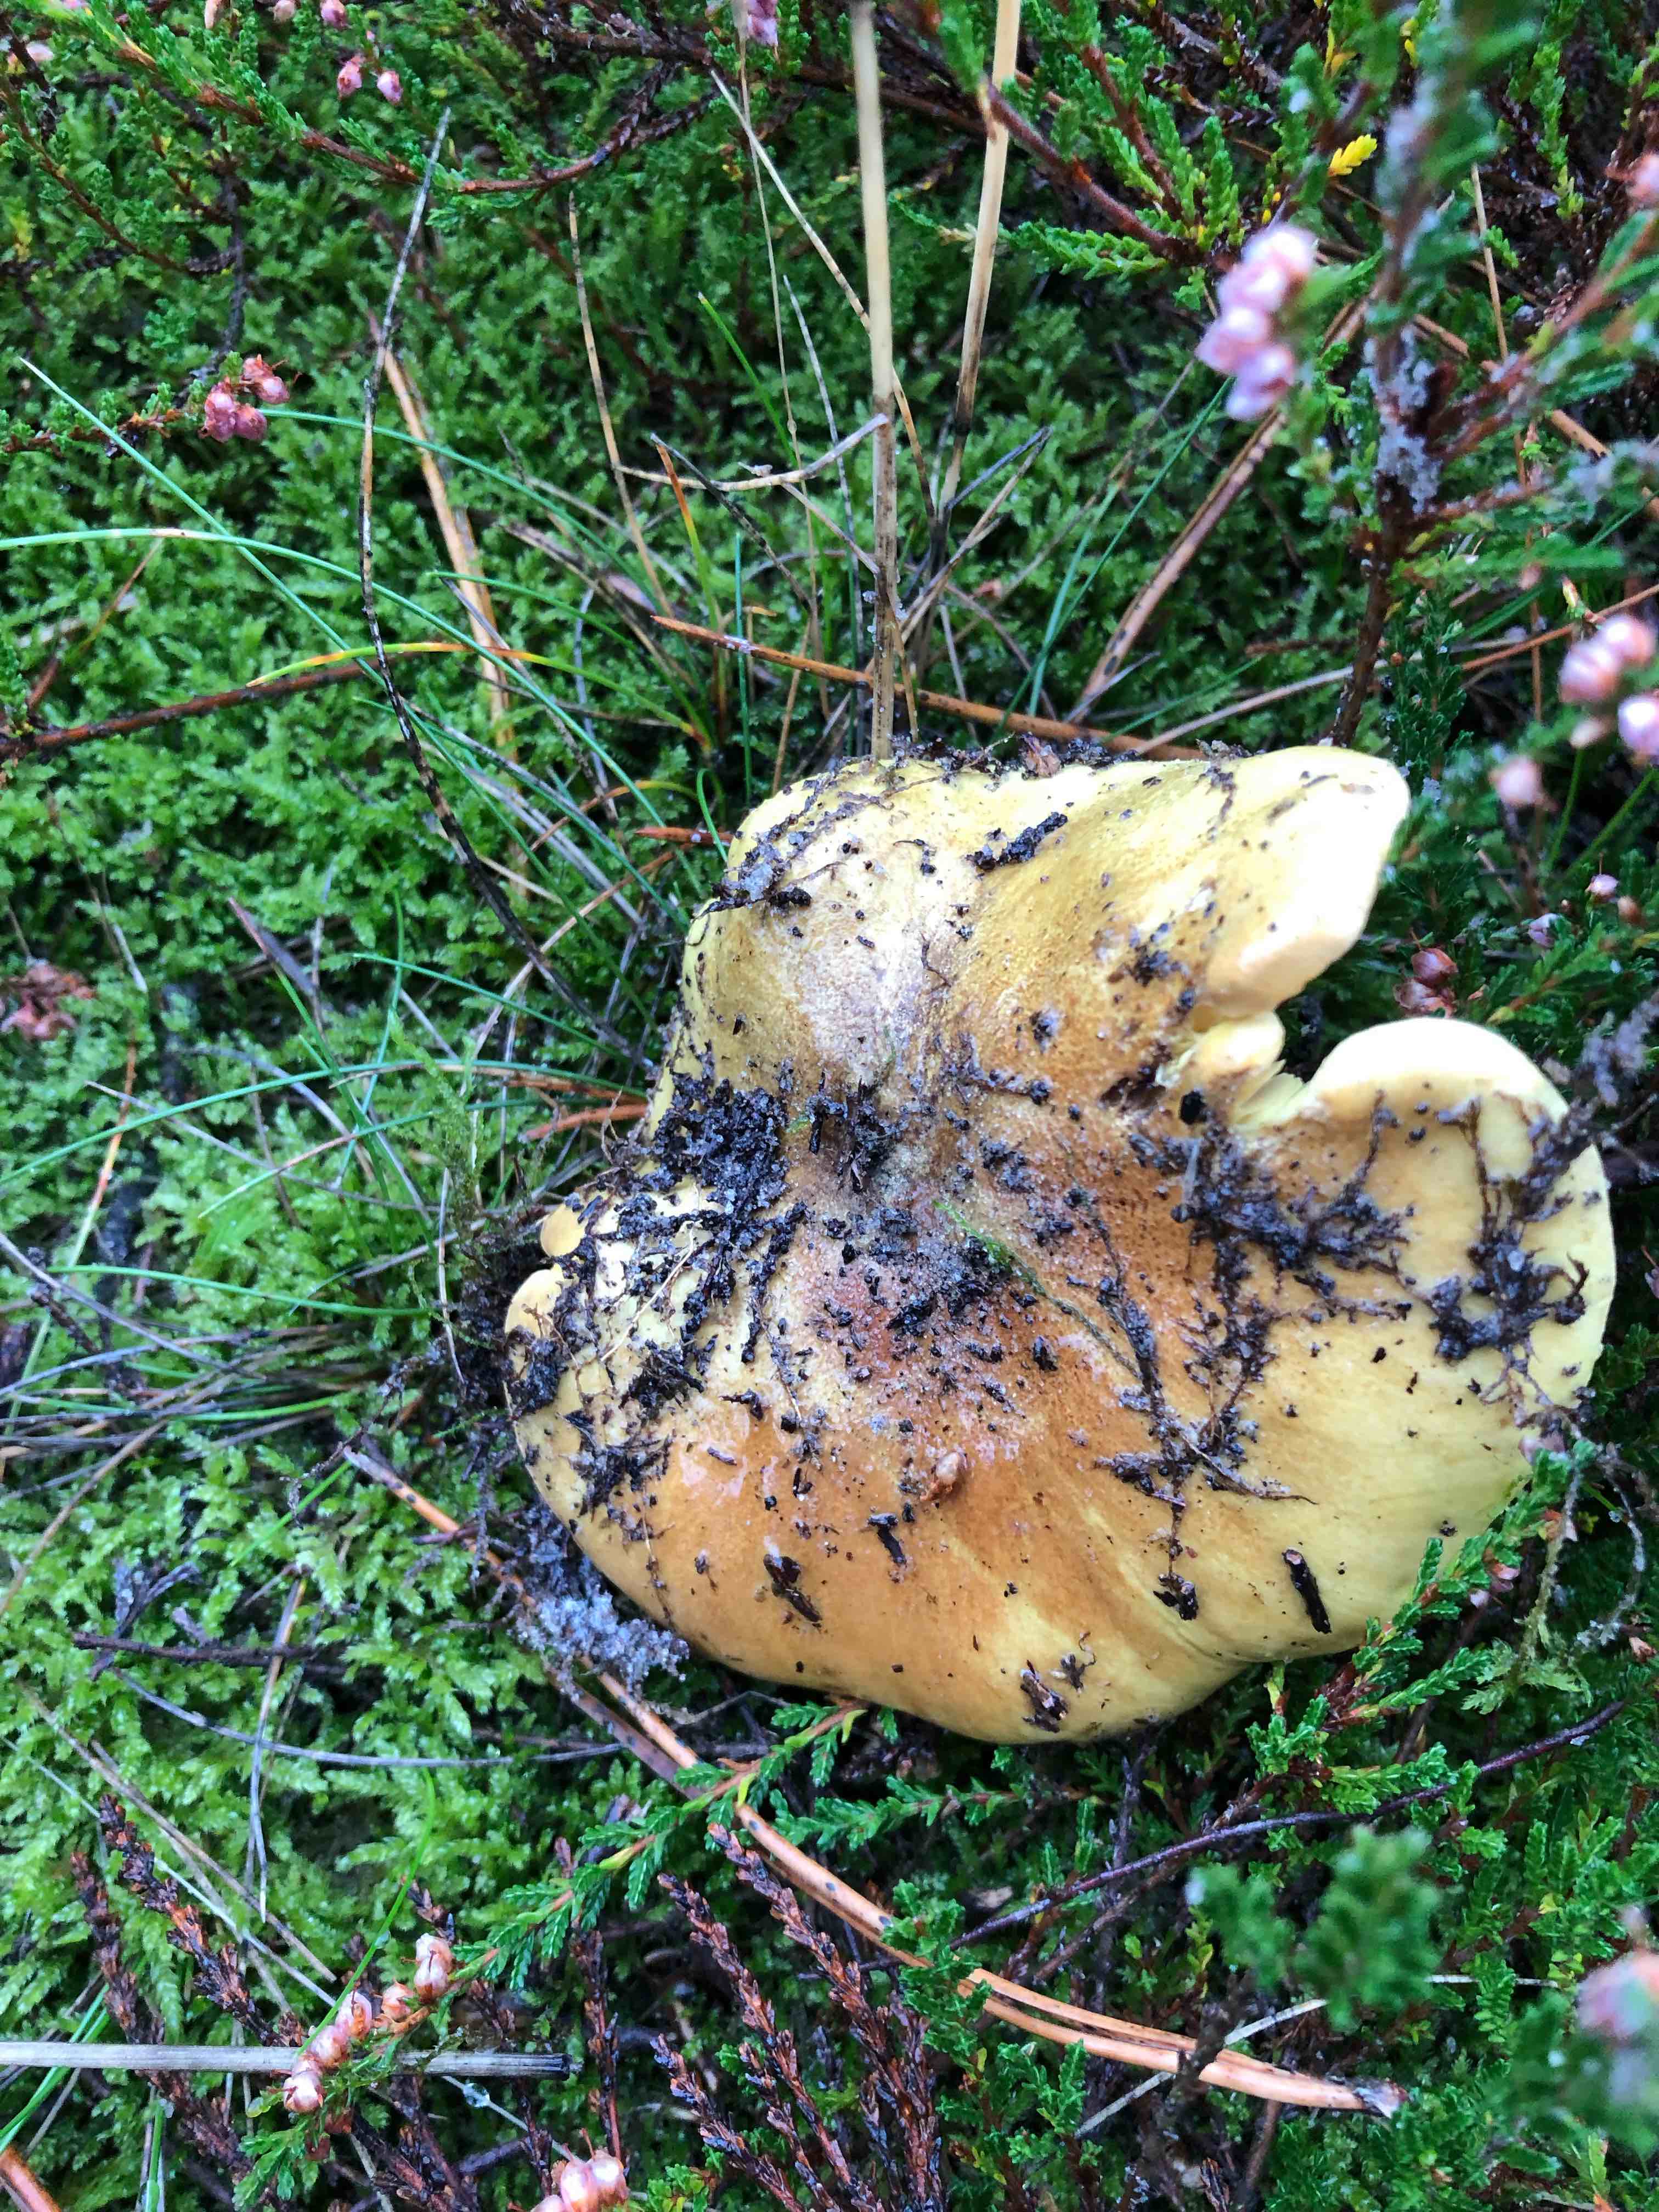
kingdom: Fungi
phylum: Basidiomycota
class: Agaricomycetes
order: Agaricales
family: Tricholomataceae
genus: Tricholoma
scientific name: Tricholoma equestre
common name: ægte ridderhat
